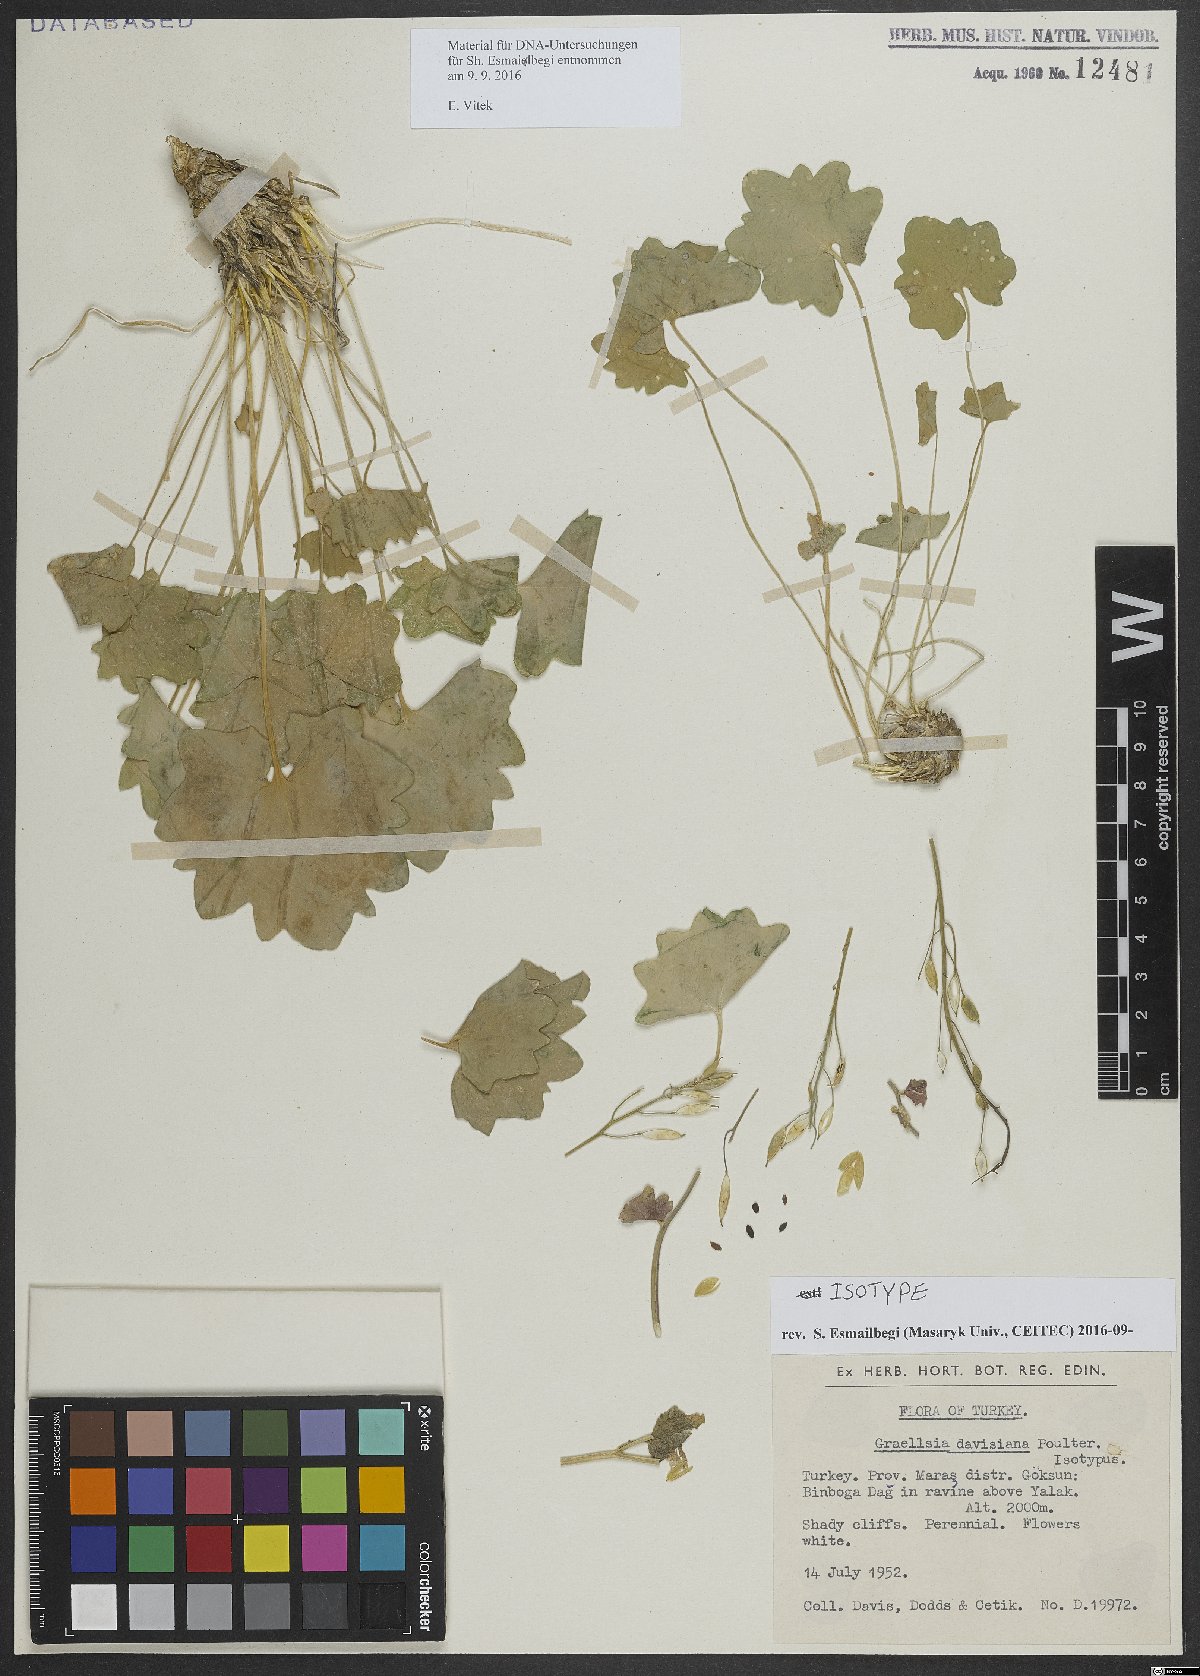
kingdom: Plantae
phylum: Tracheophyta
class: Magnoliopsida
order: Brassicales
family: Brassicaceae
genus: Graellsia
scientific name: Graellsia davisiana
